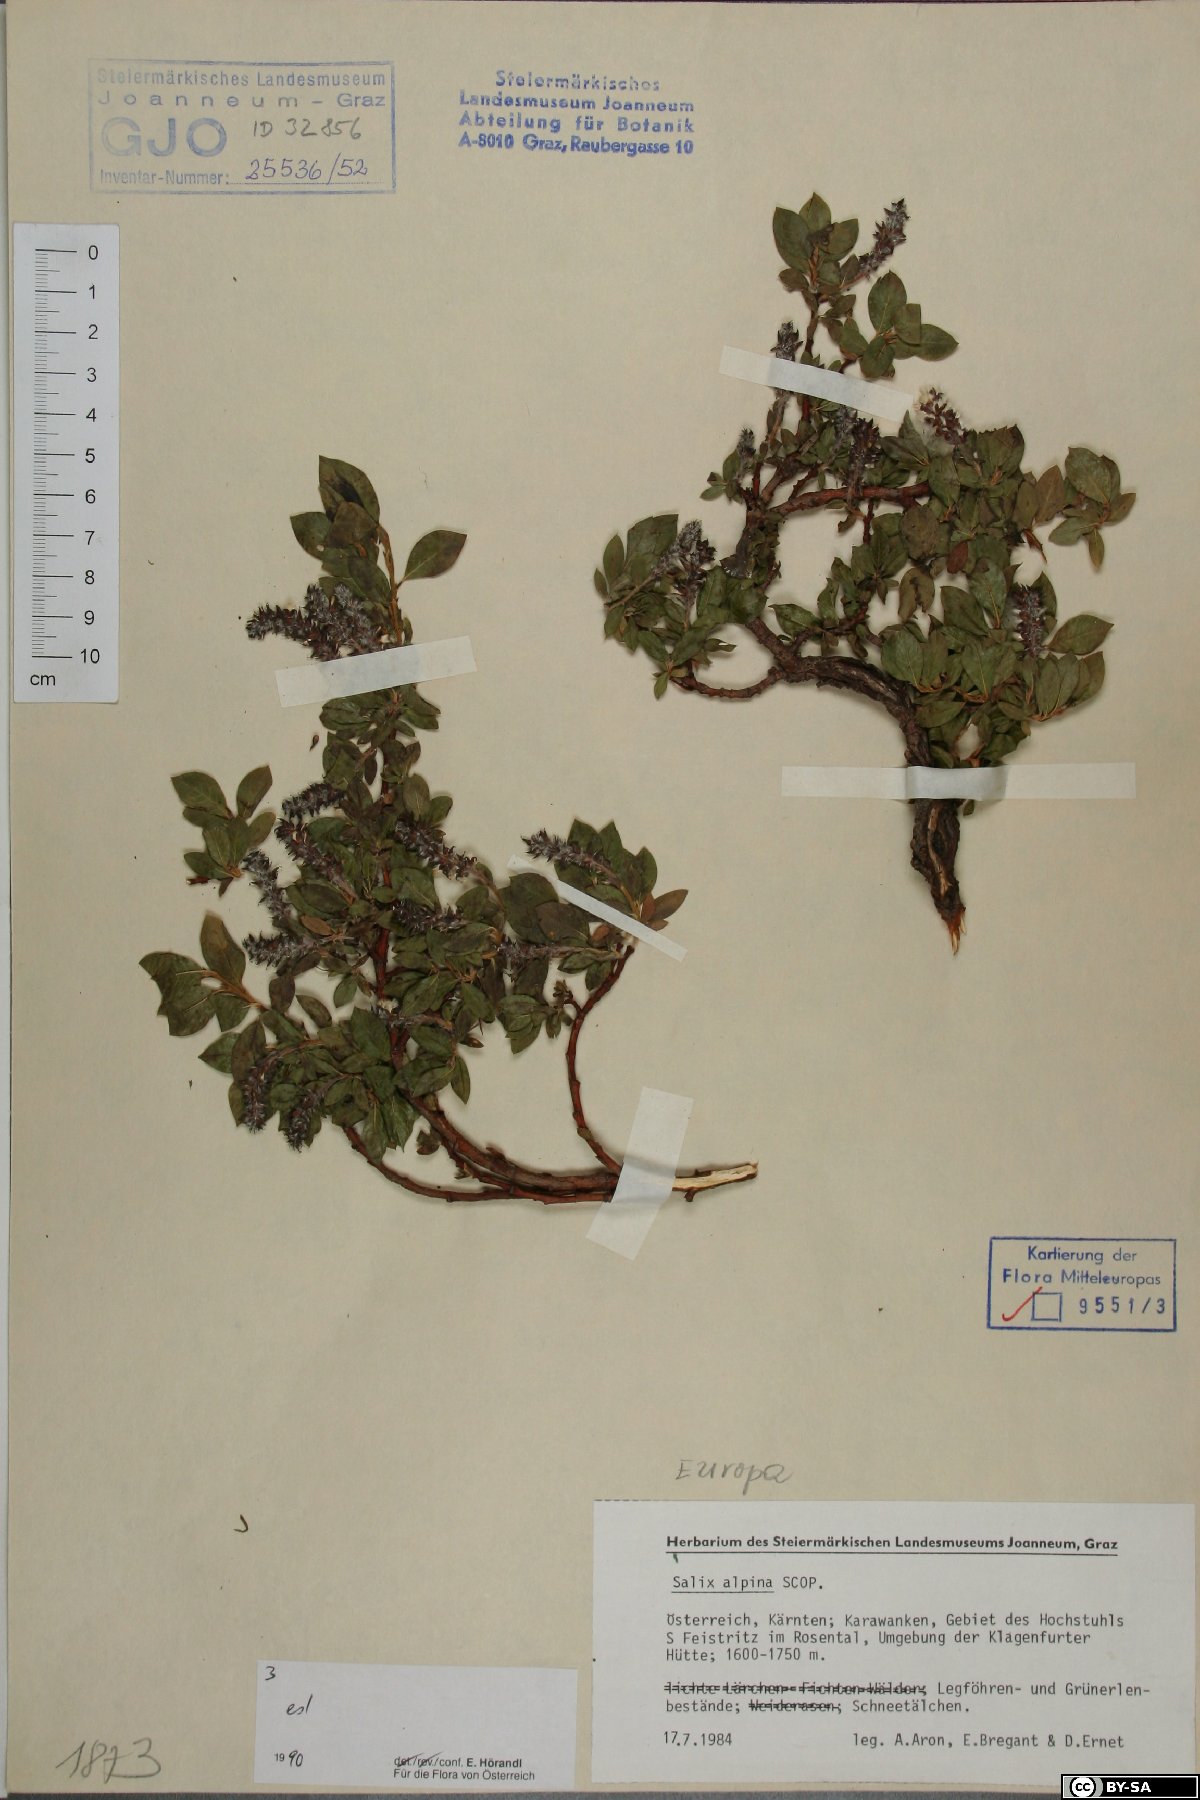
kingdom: Plantae
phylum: Tracheophyta
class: Magnoliopsida
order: Malpighiales
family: Salicaceae
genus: Salix
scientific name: Salix alpina
